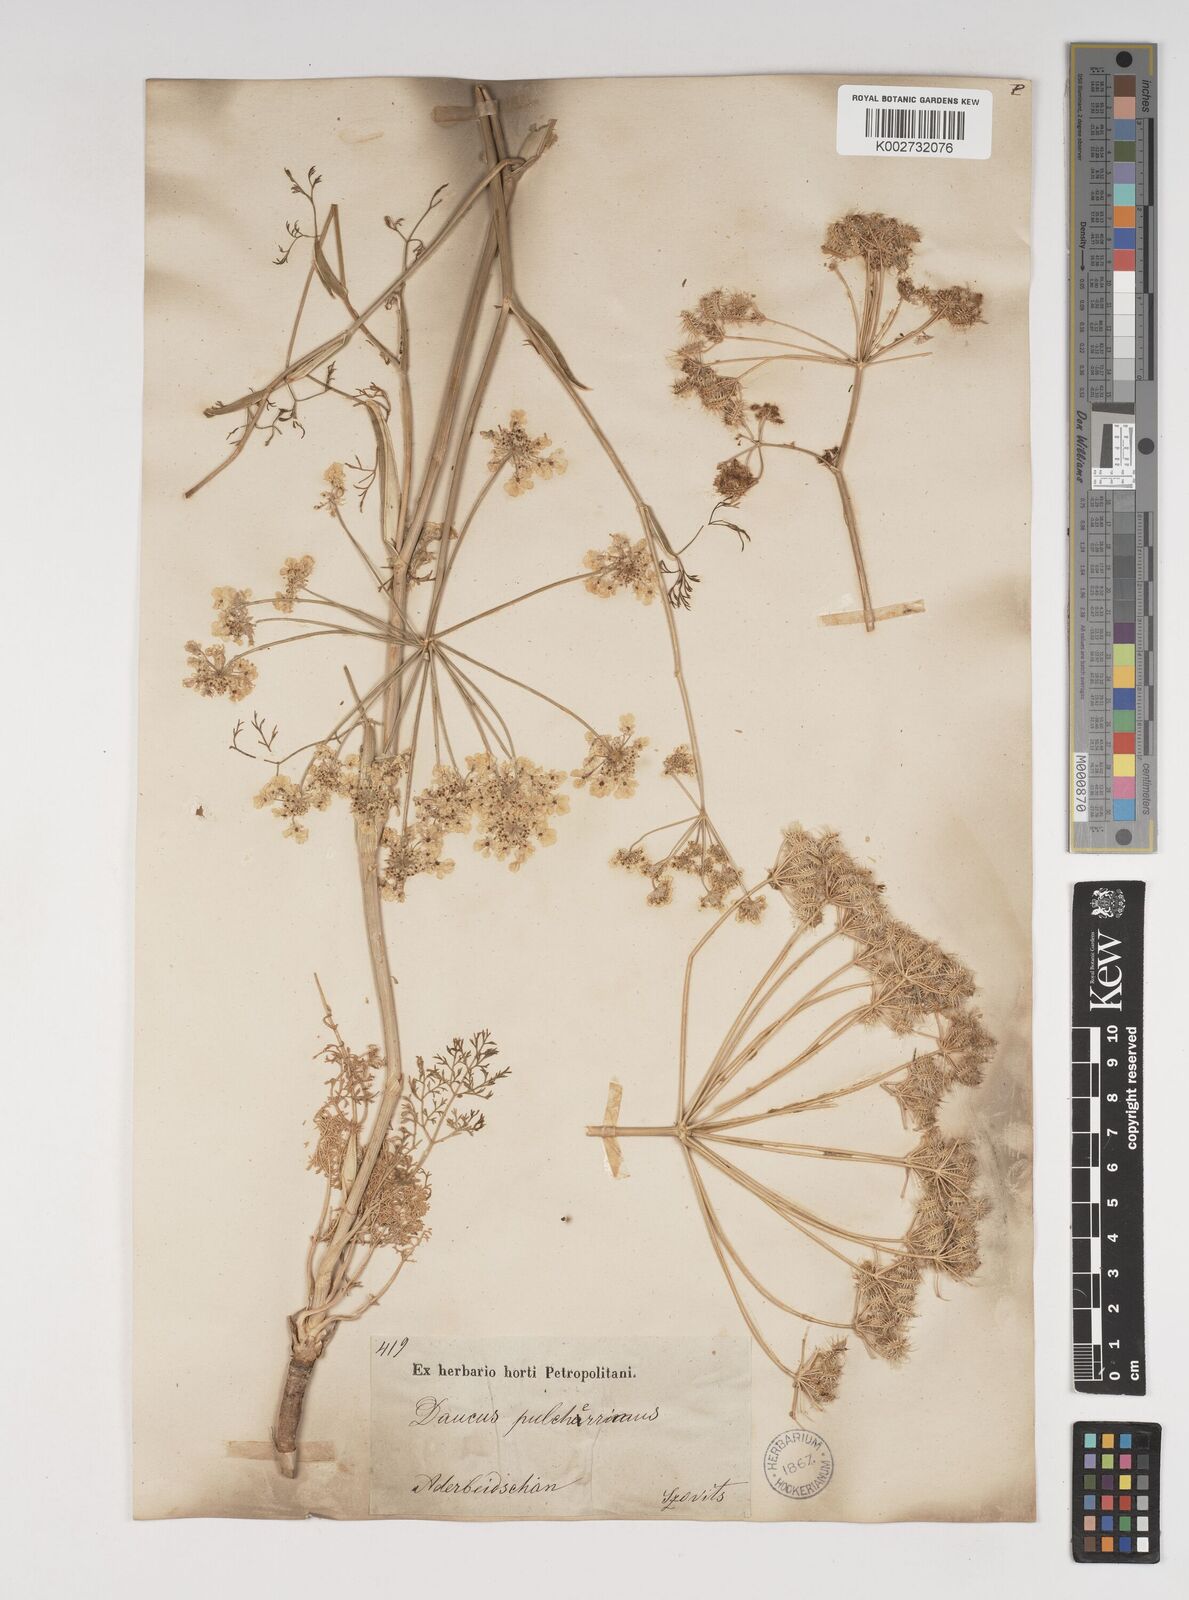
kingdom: Plantae
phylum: Tracheophyta
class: Magnoliopsida
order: Apiales
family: Apiaceae
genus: Astrodaucus
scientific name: Astrodaucus
